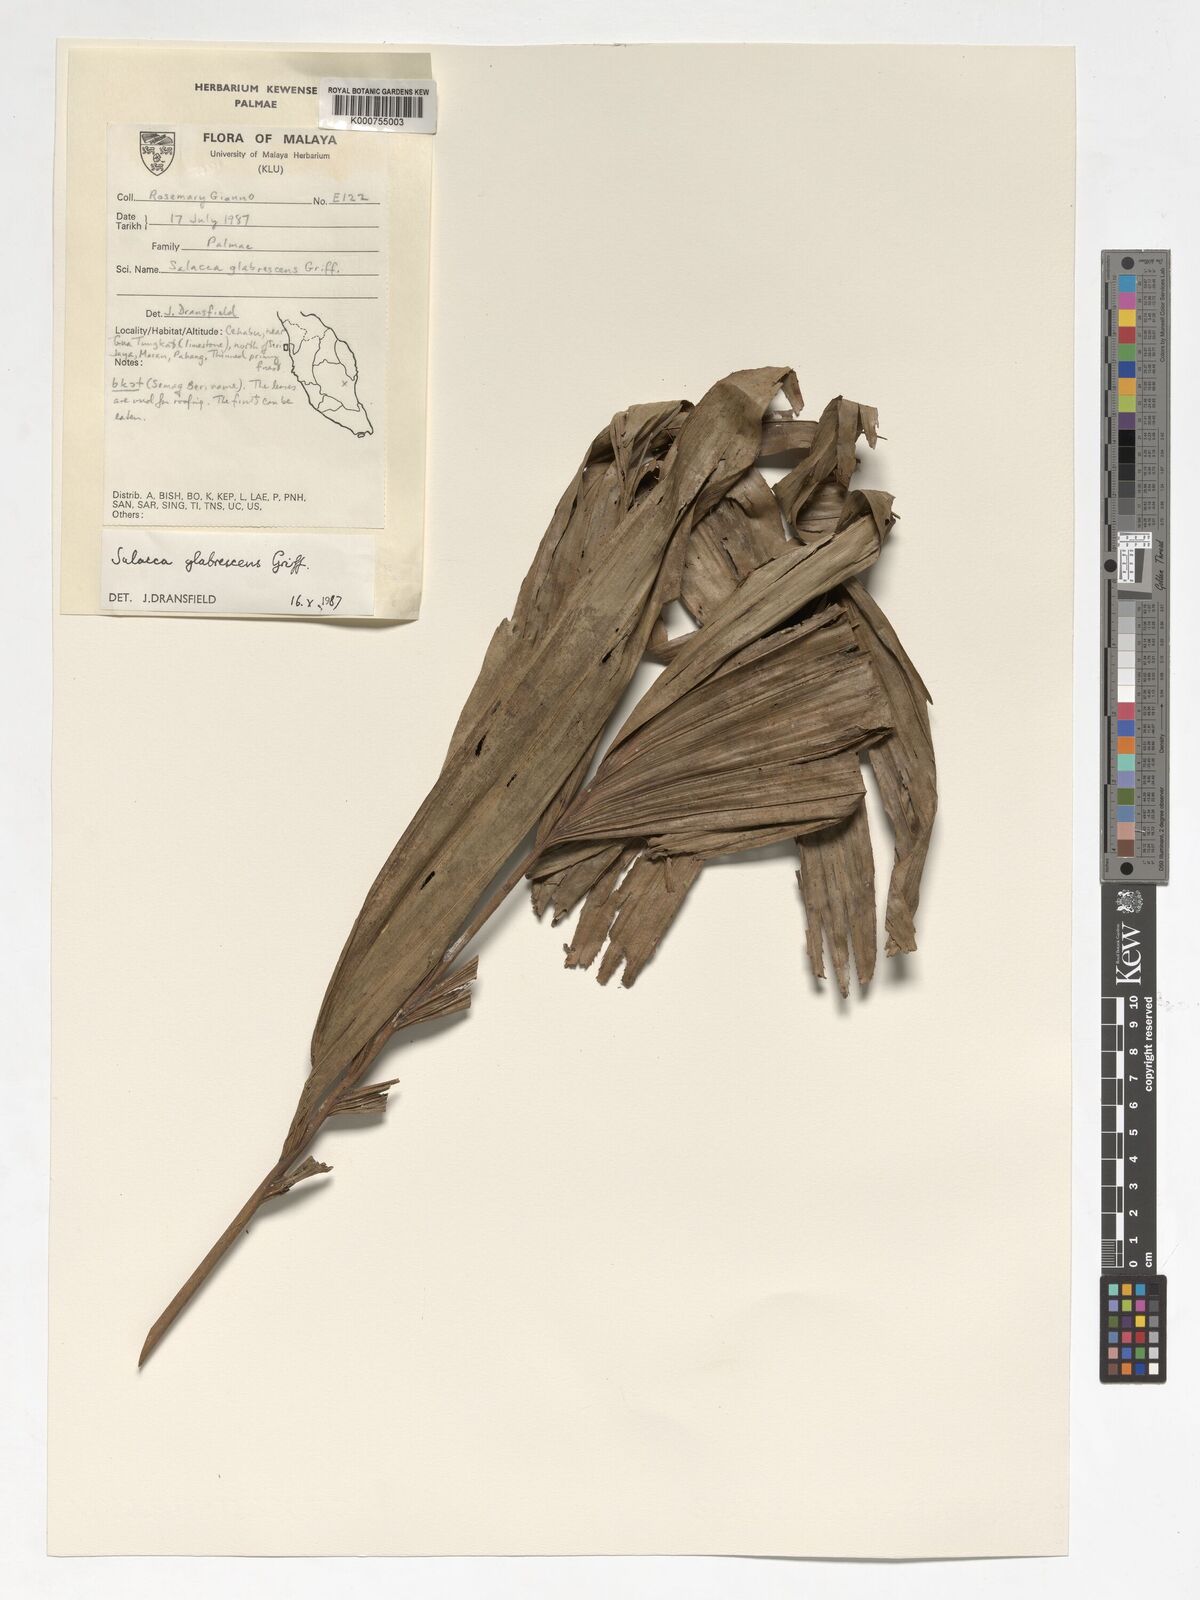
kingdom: Plantae
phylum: Tracheophyta
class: Liliopsida
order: Arecales
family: Arecaceae
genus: Salacca
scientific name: Salacca glabrescens
